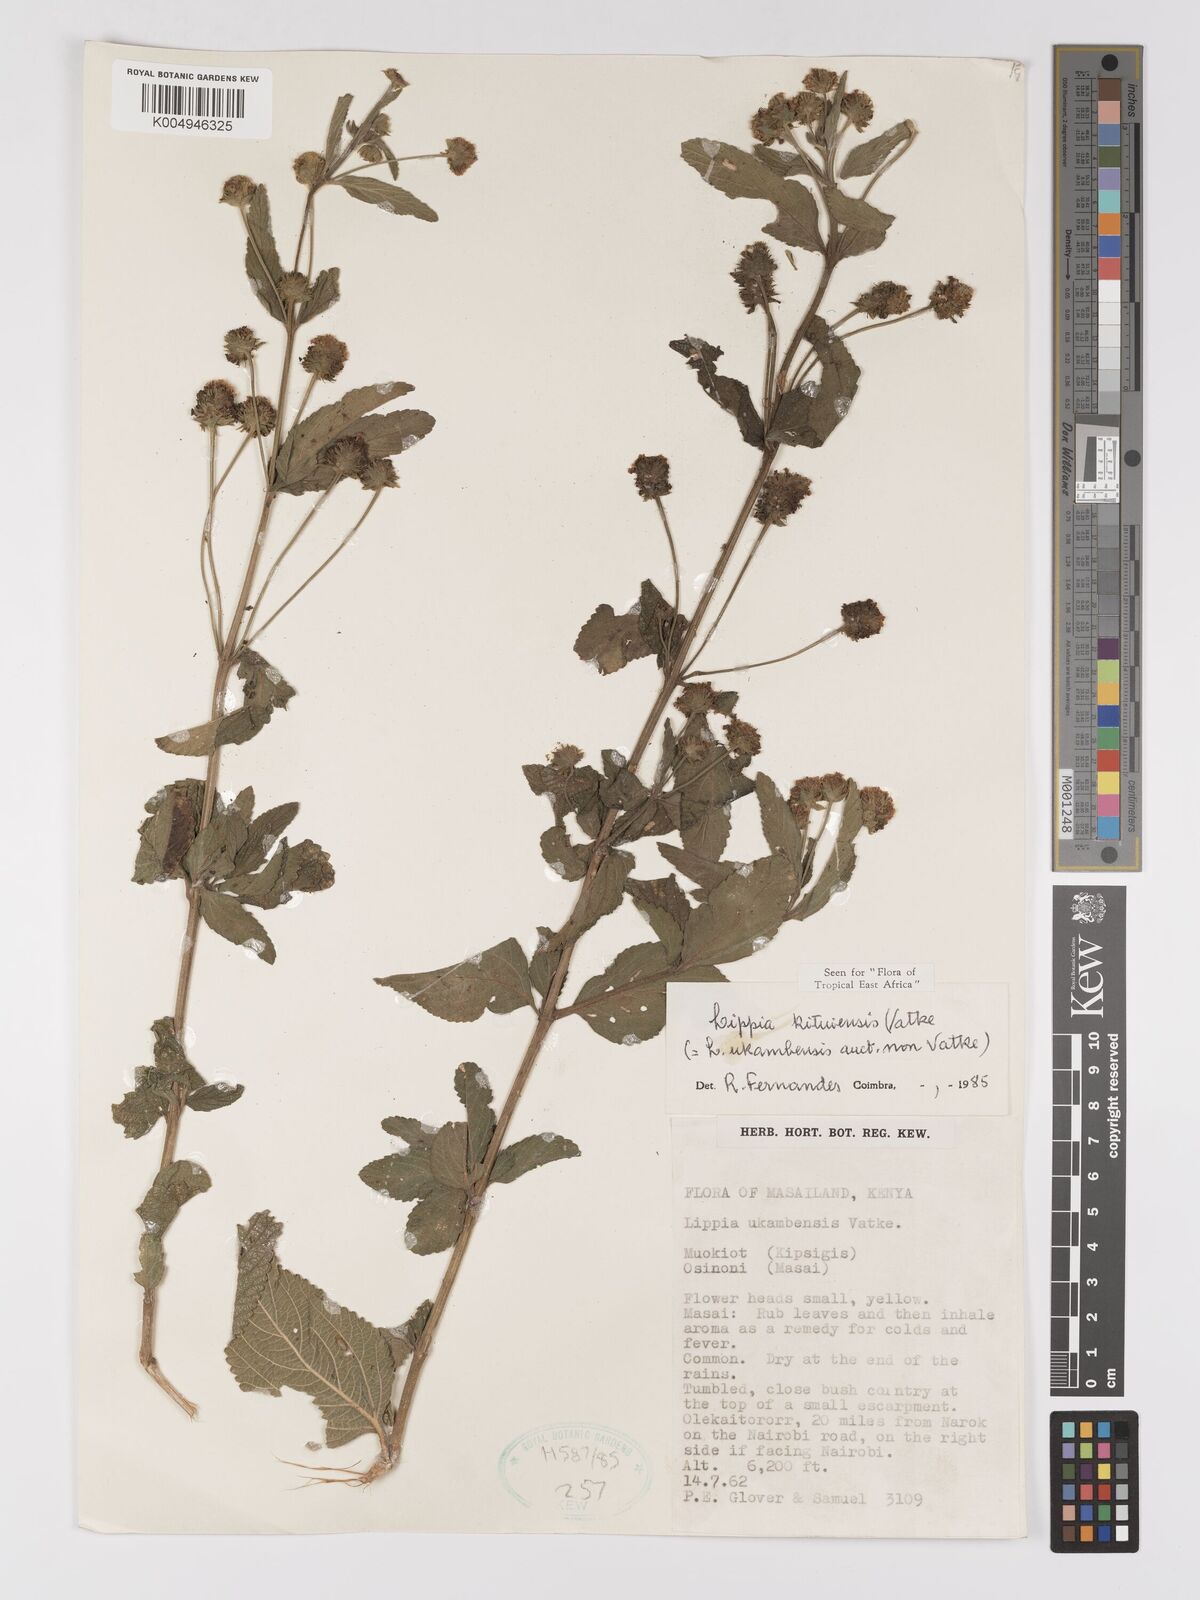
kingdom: Plantae
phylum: Tracheophyta
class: Magnoliopsida
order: Lamiales
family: Verbenaceae
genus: Lantana
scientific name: Lantana ukambensis
